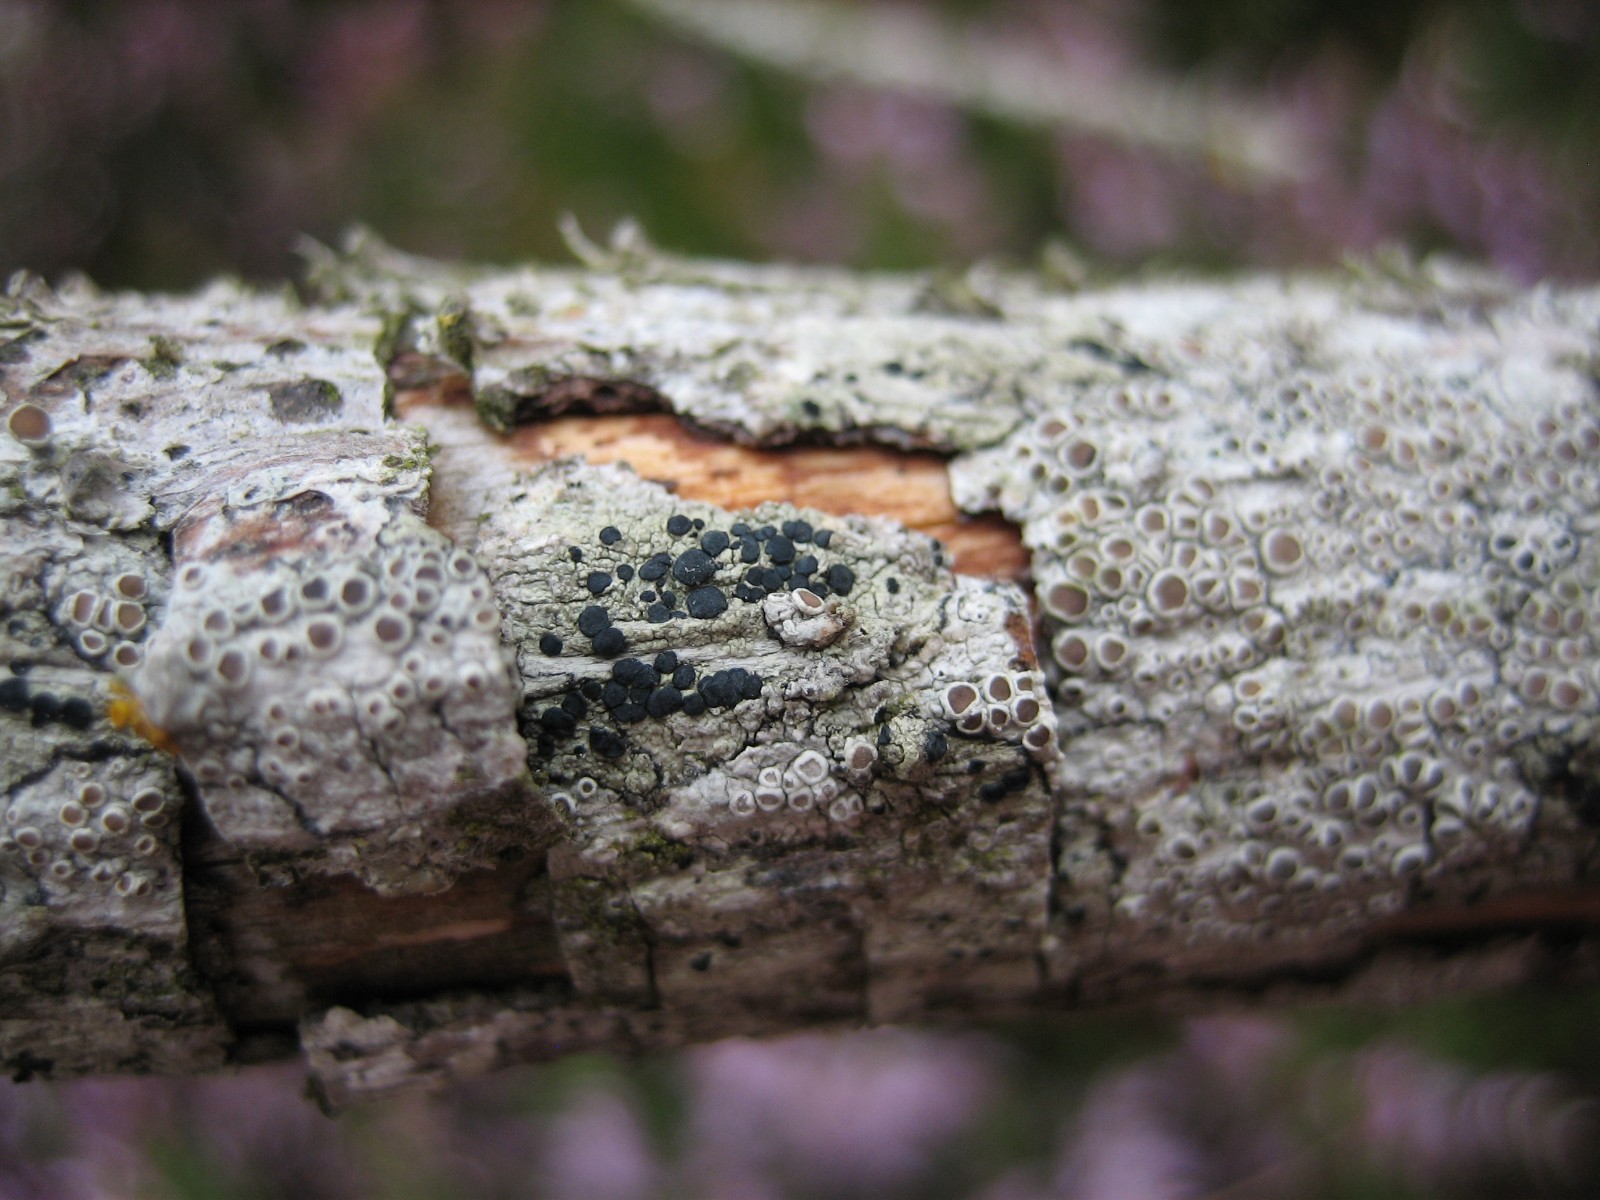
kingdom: Fungi
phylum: Ascomycota
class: Lecanoromycetes
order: Lecanorales
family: Lecanoraceae
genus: Lecidella
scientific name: Lecidella elaeochroma
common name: grågrøn skivelav
